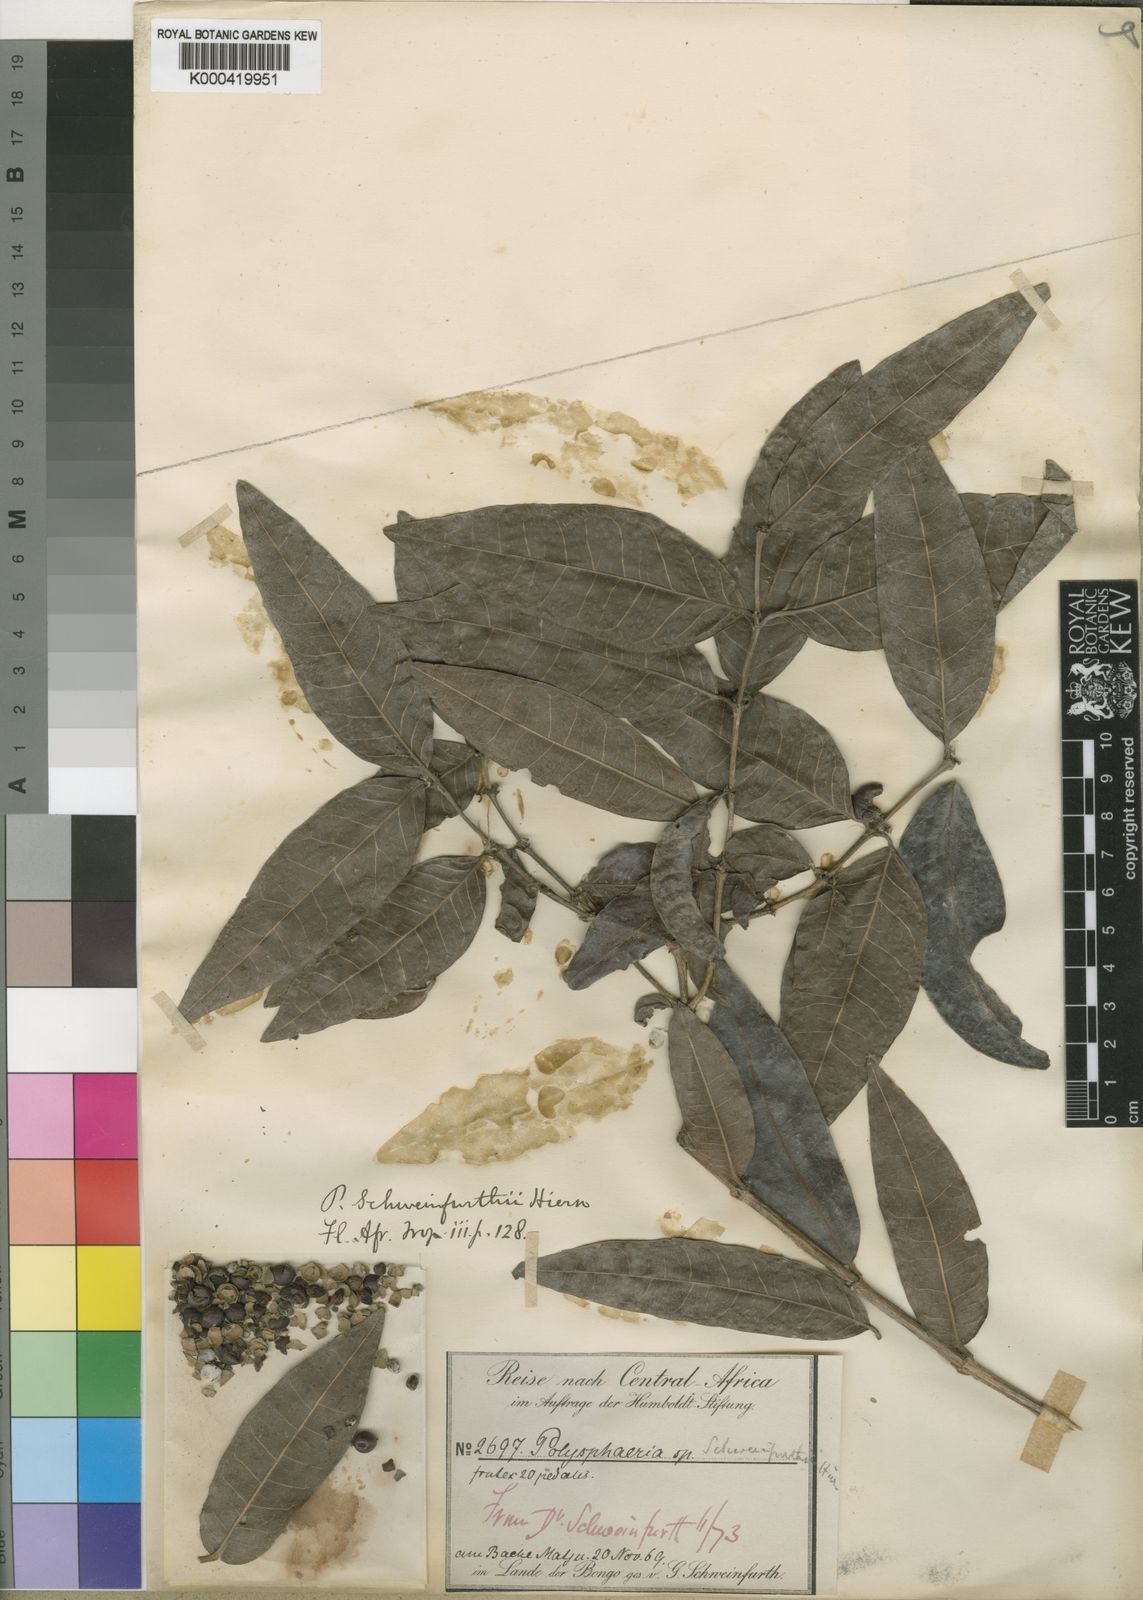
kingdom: Plantae
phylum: Tracheophyta
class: Magnoliopsida
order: Gentianales
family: Rubiaceae
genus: Polysphaeria
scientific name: Polysphaeria lanceolata
